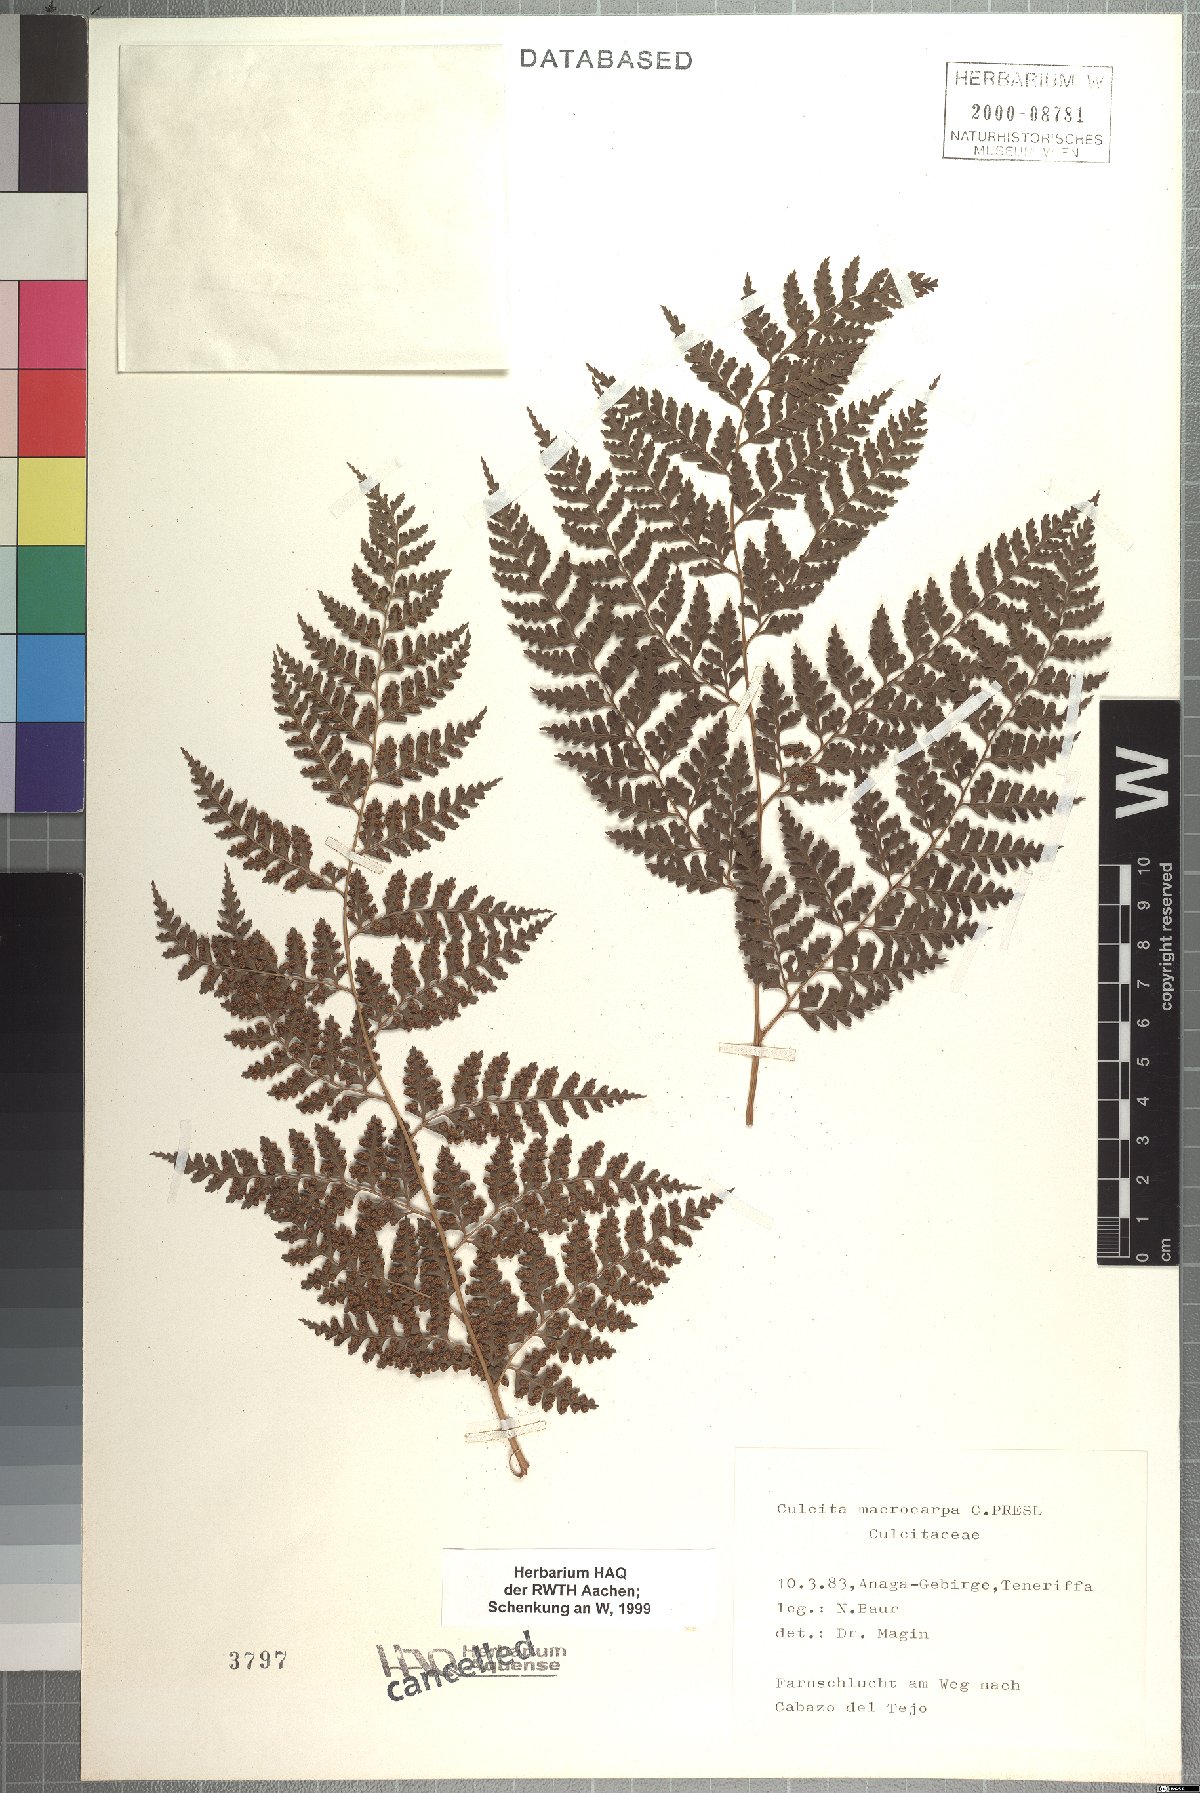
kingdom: Plantae
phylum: Tracheophyta
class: Polypodiopsida
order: Cyatheales
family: Culcitaceae
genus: Culcita
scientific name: Culcita macrocarpa
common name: Woolly tree fern
